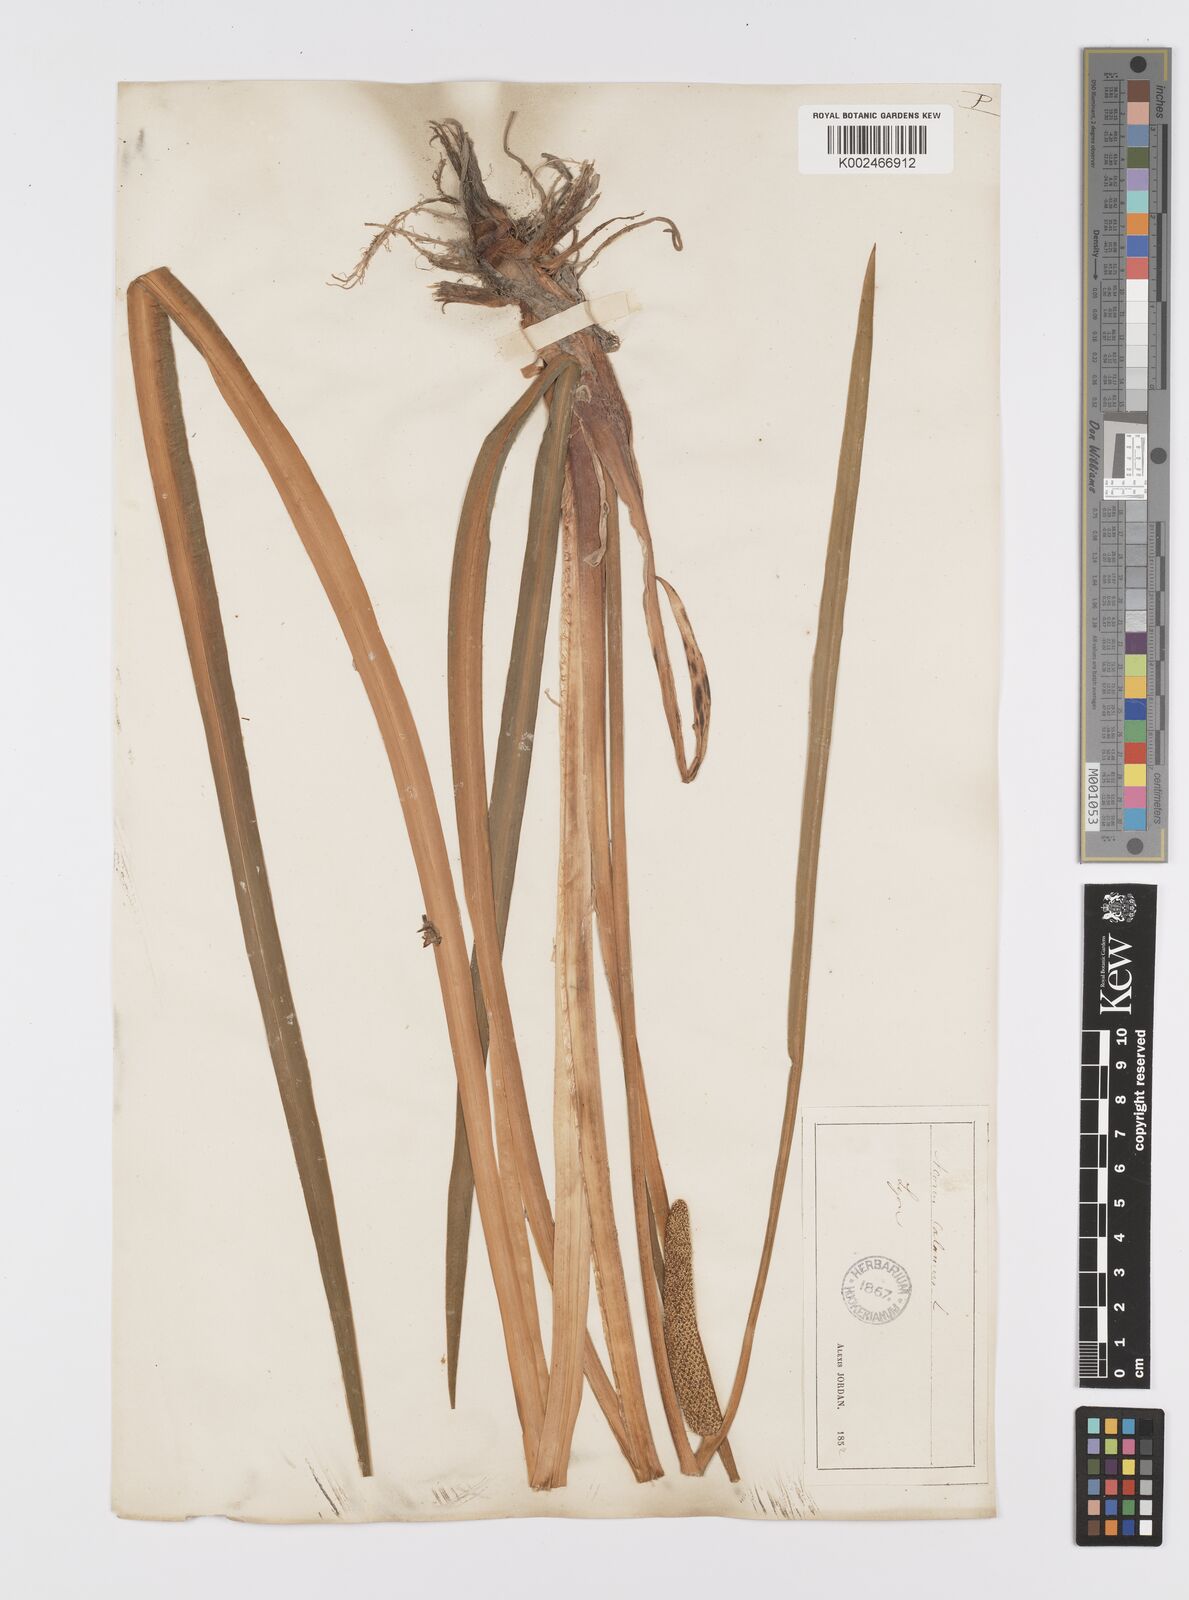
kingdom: Plantae
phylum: Tracheophyta
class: Liliopsida
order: Acorales
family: Acoraceae
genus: Acorus
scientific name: Acorus calamus
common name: Sweet-flag
